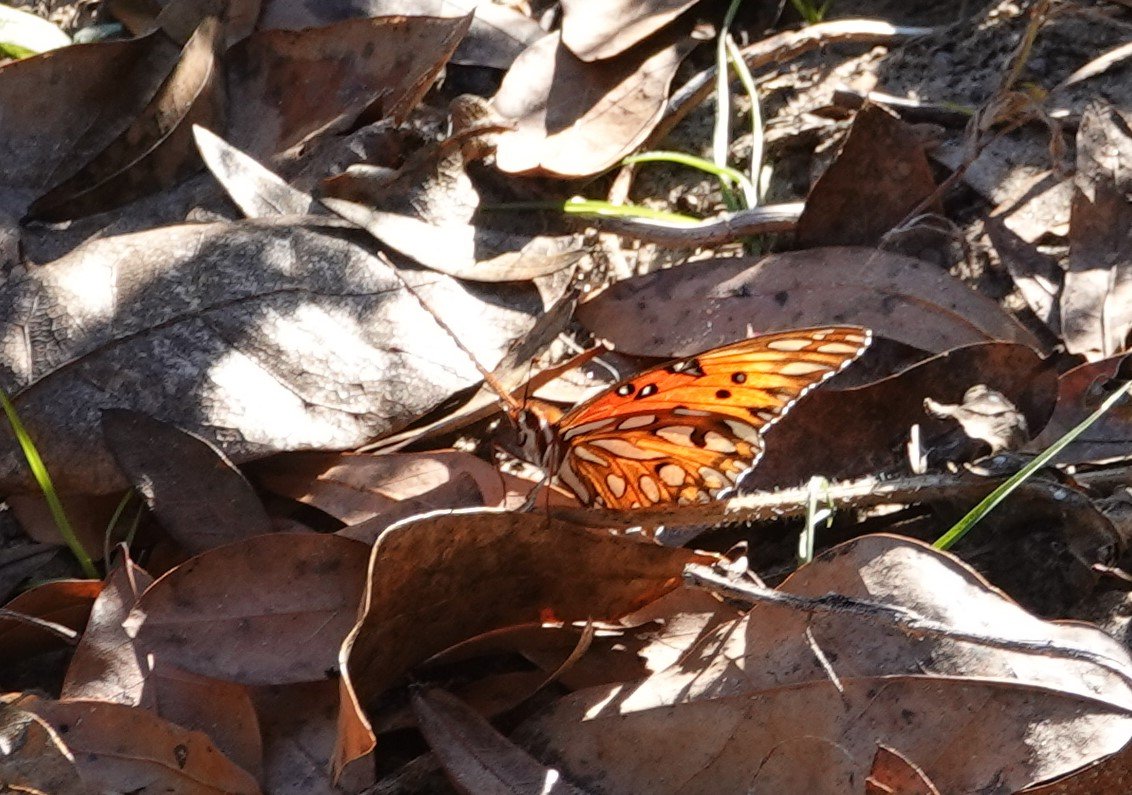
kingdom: Animalia
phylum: Arthropoda
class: Insecta
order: Lepidoptera
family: Nymphalidae
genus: Dione
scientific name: Dione vanillae
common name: Gulf Fritillary
